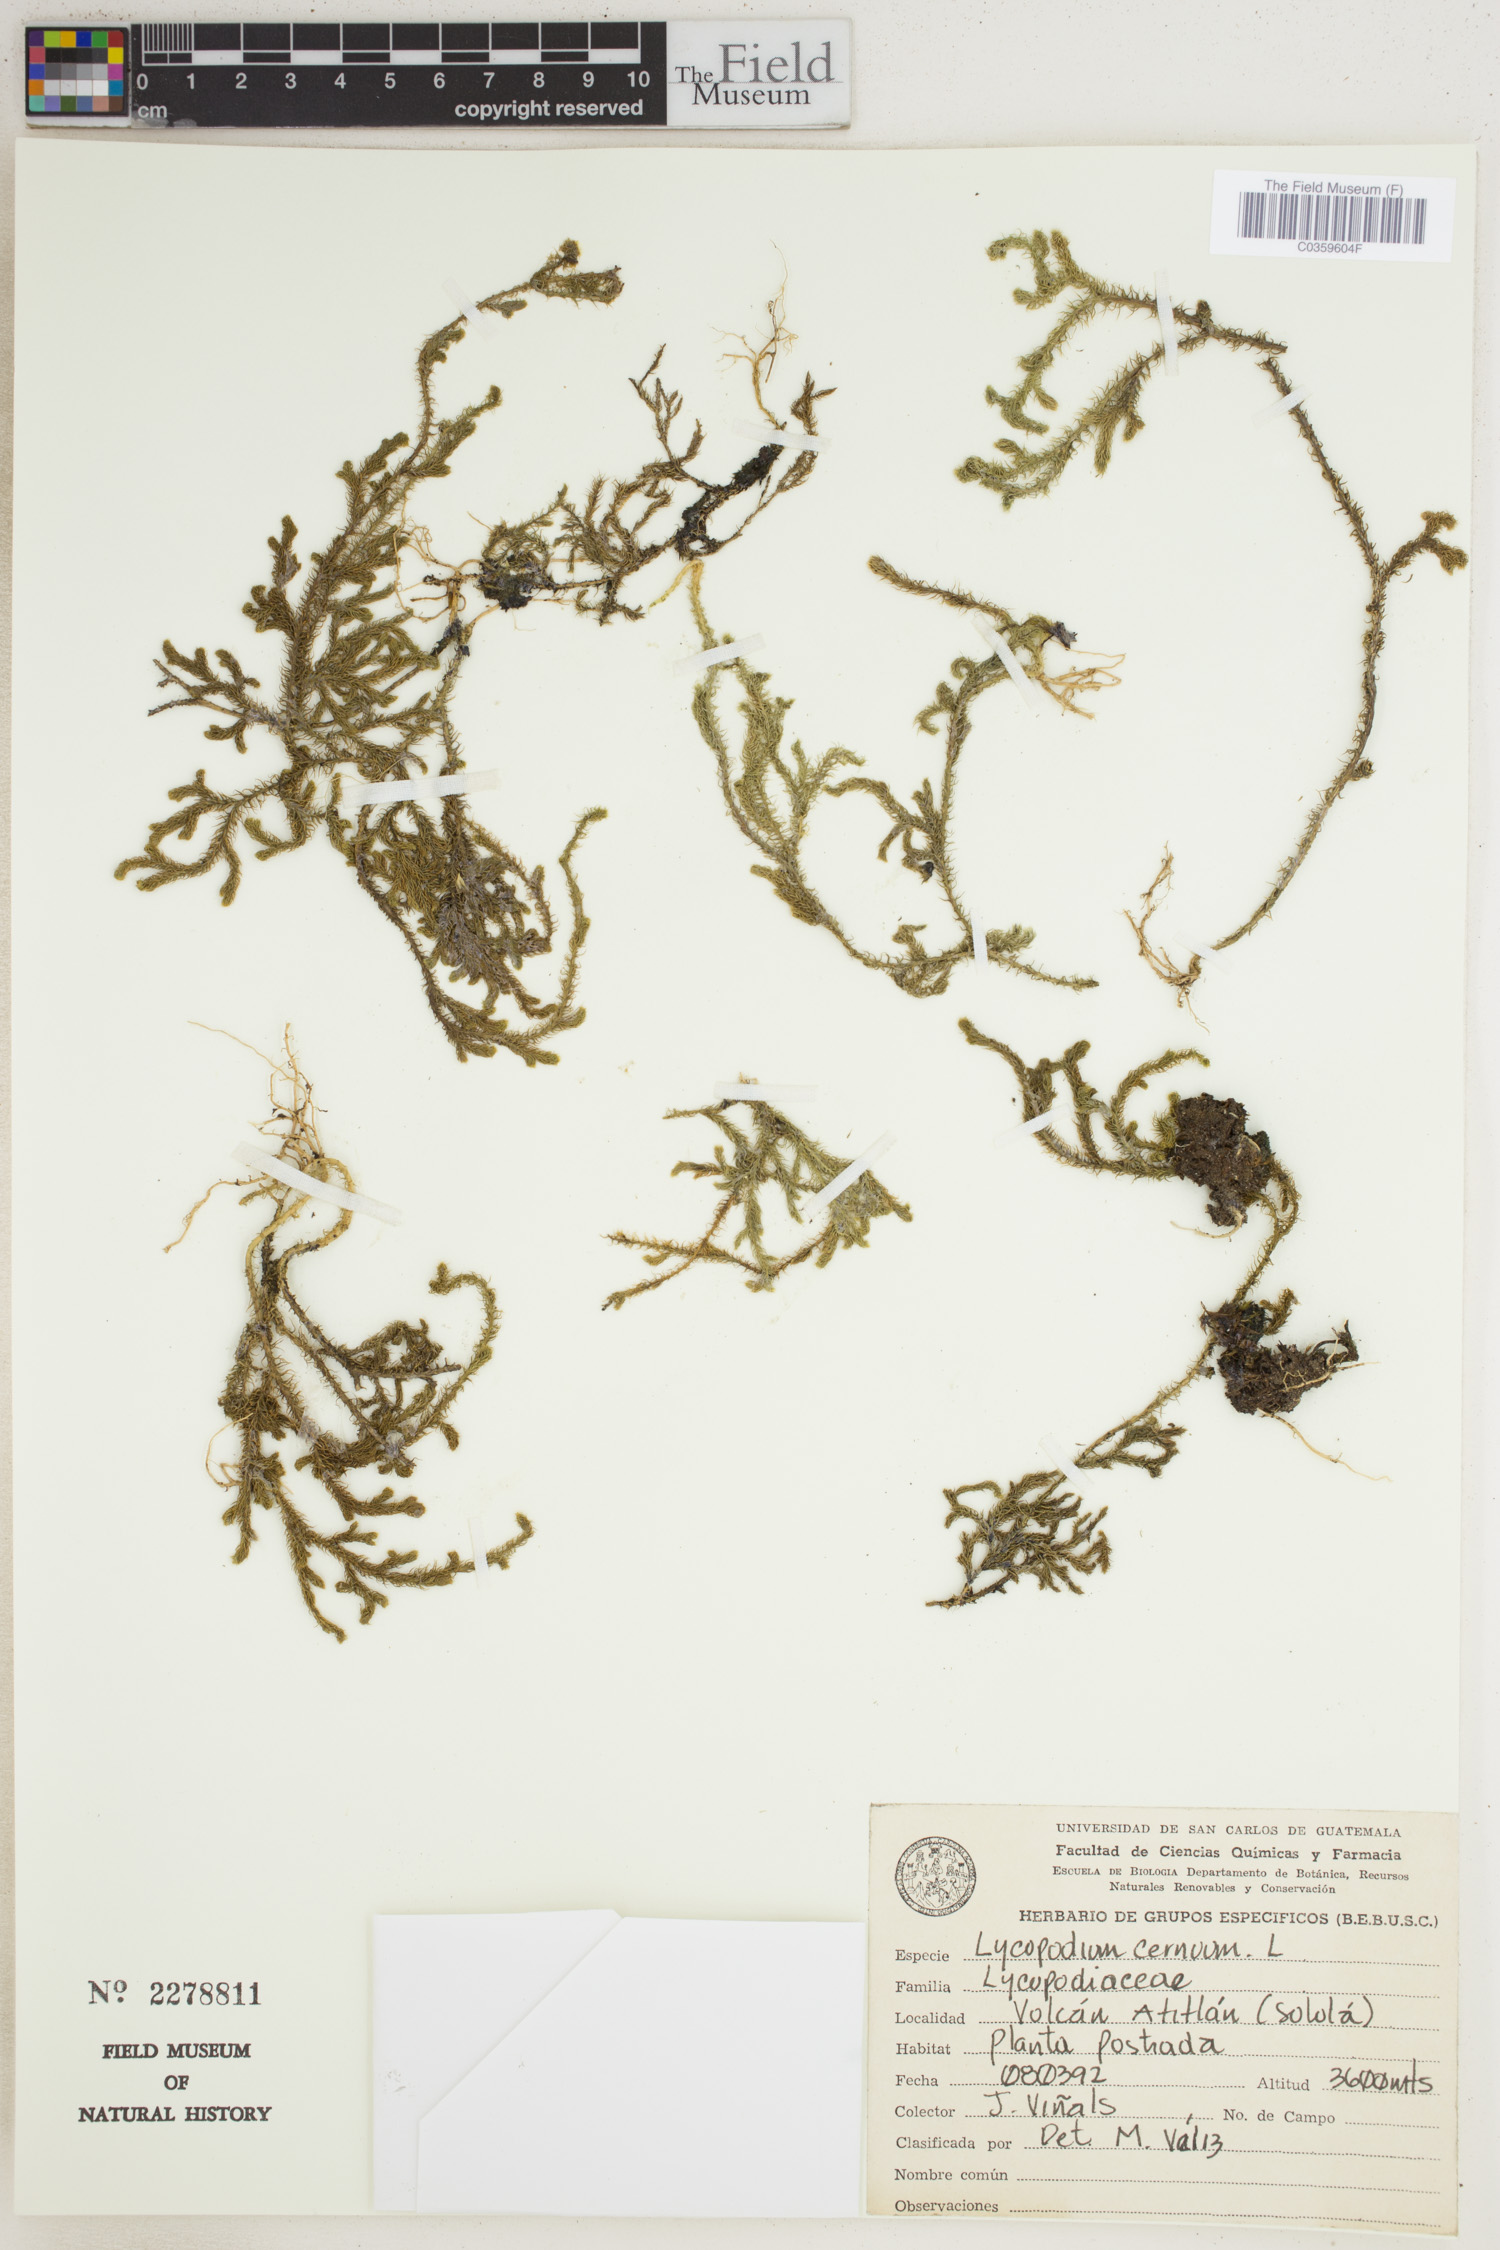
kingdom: Plantae
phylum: Tracheophyta
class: Lycopodiopsida
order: Lycopodiales
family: Lycopodiaceae
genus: Palhinhaea
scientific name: Palhinhaea cernua
